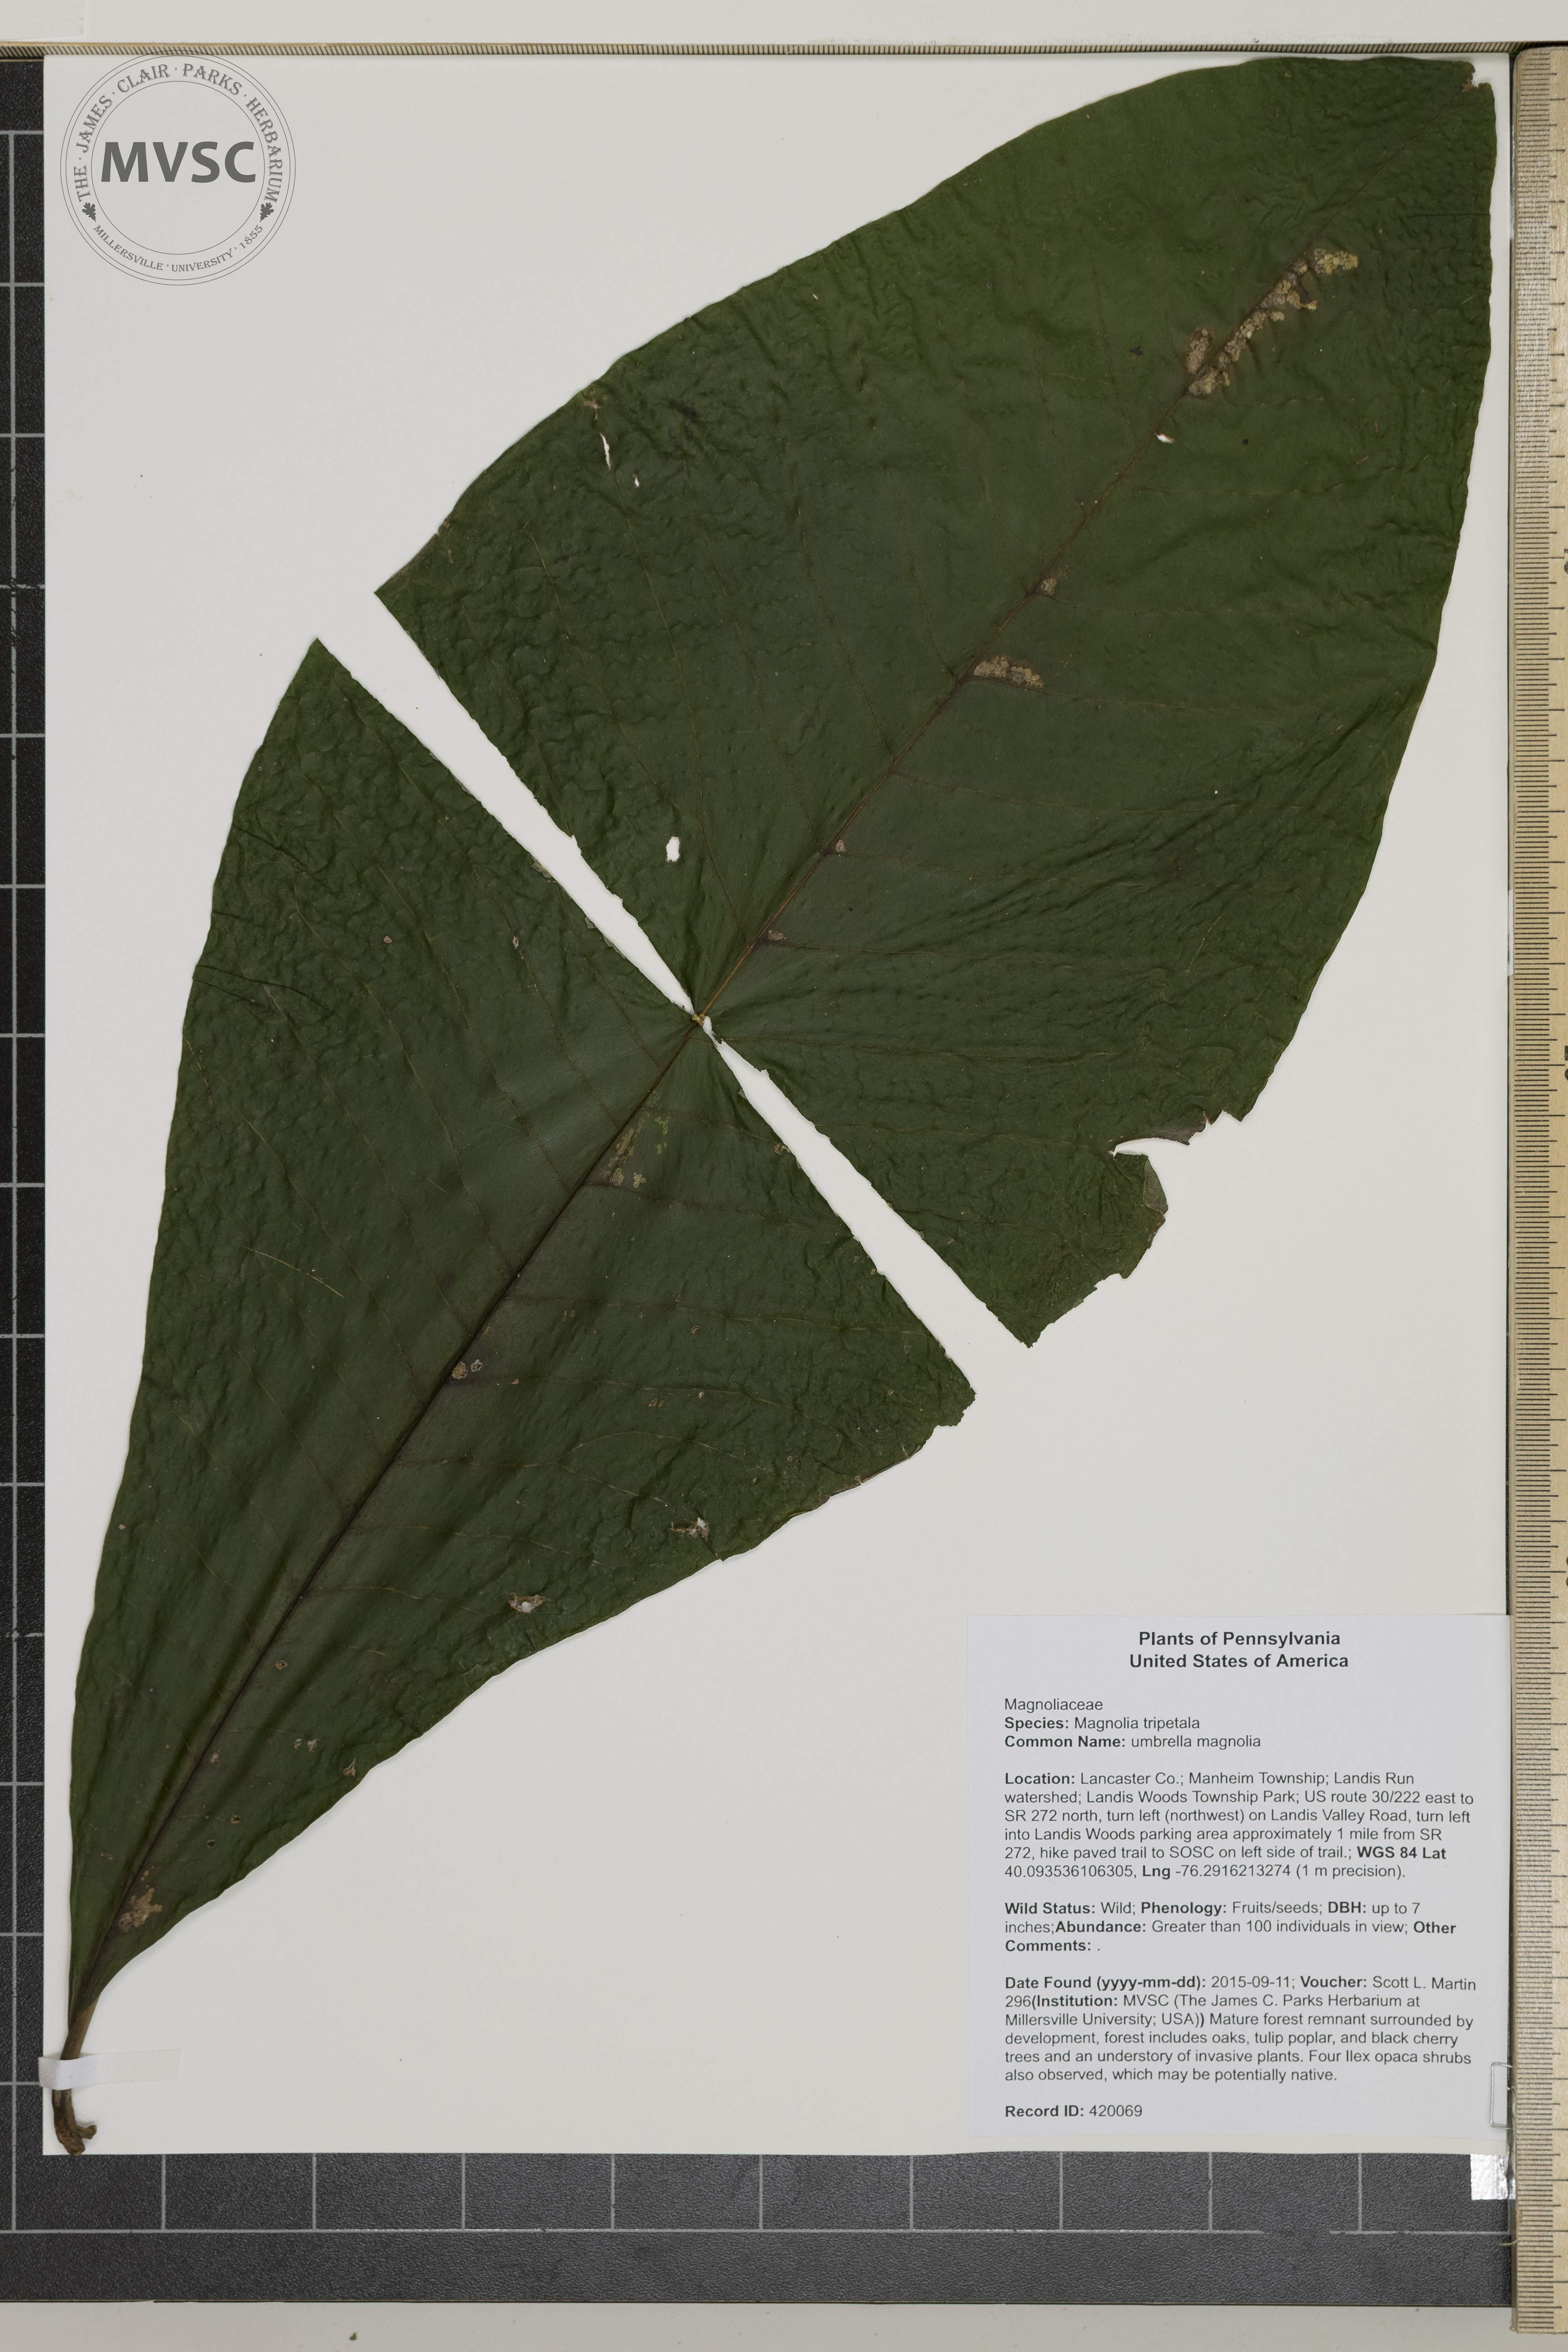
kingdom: Plantae
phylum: Tracheophyta
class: Magnoliopsida
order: Magnoliales
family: Magnoliaceae
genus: Magnolia
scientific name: Magnolia tripetala
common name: umbrella magnolia
